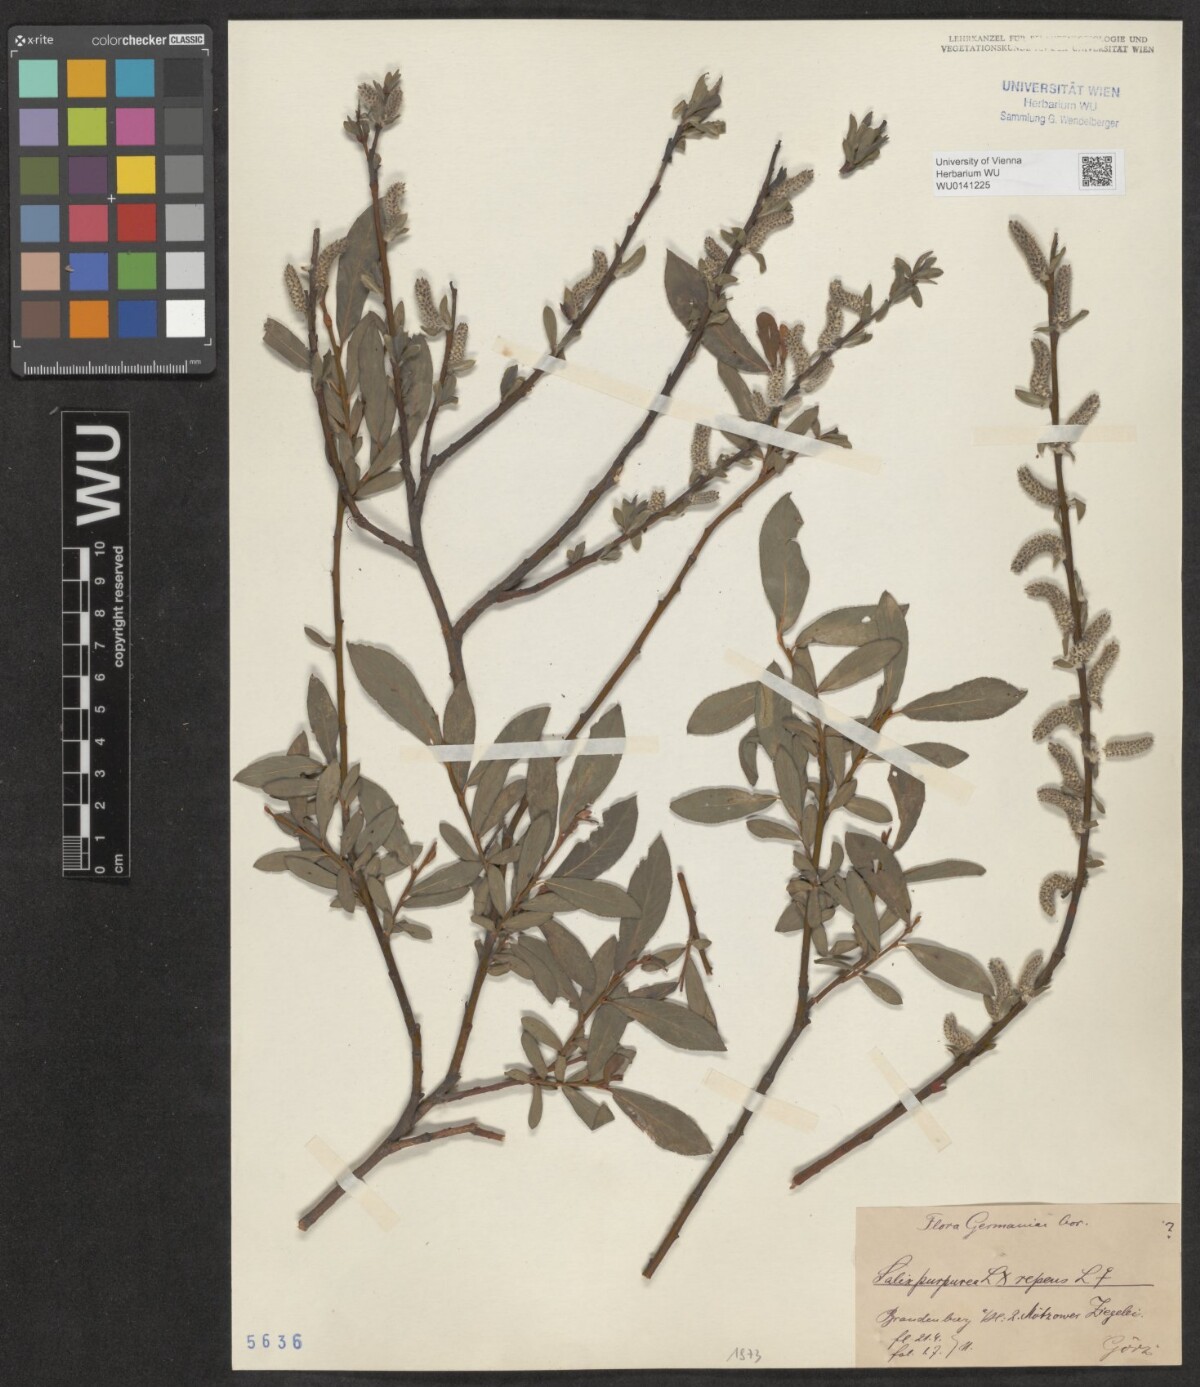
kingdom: Plantae
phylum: Tracheophyta
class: Magnoliopsida
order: Malpighiales
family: Salicaceae
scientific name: Salicaceae
